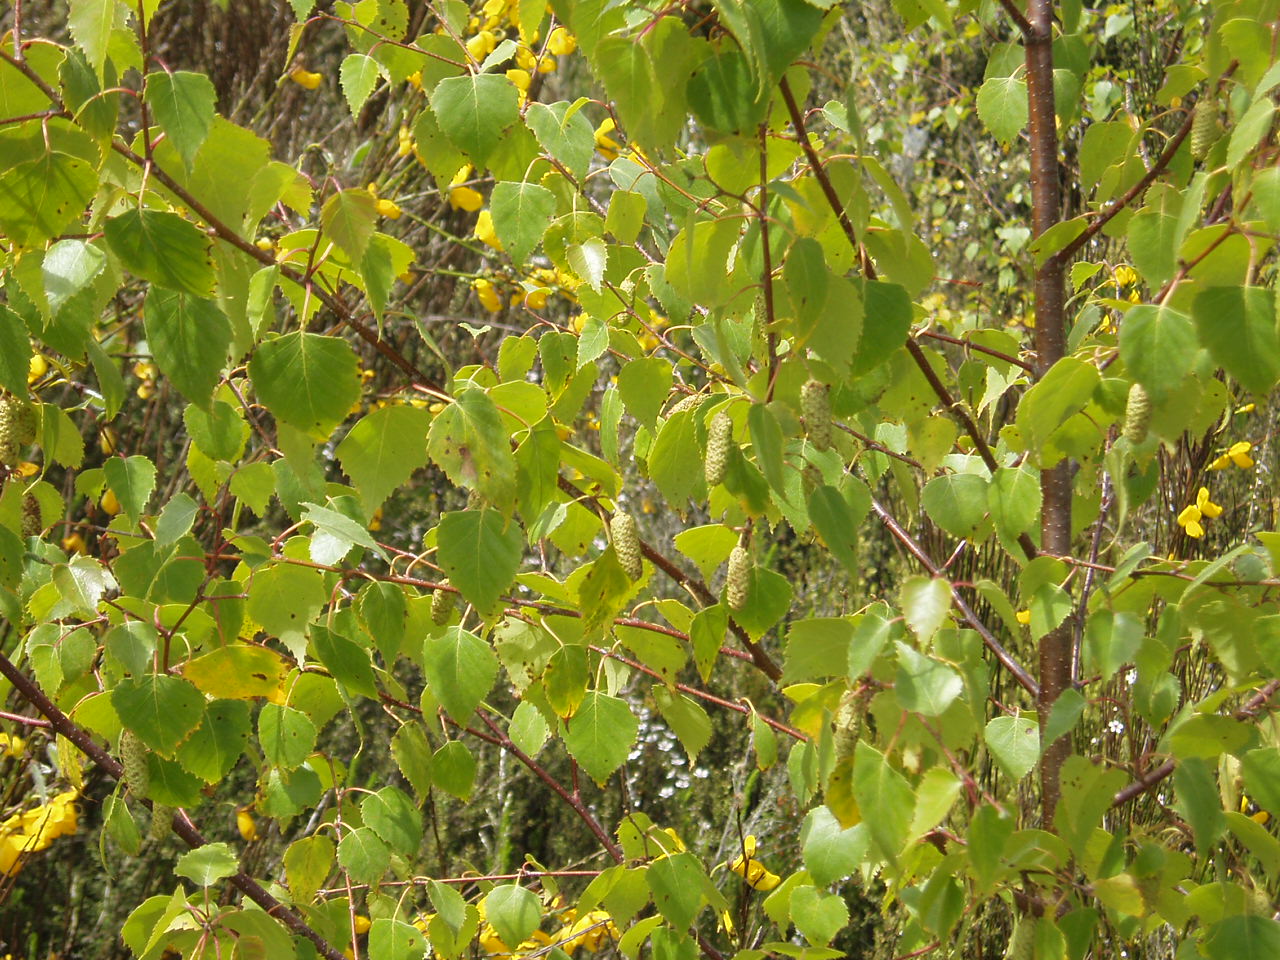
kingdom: Plantae
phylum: Tracheophyta
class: Magnoliopsida
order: Fagales
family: Betulaceae
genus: Betula
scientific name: Betula pendula
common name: Silver birch
